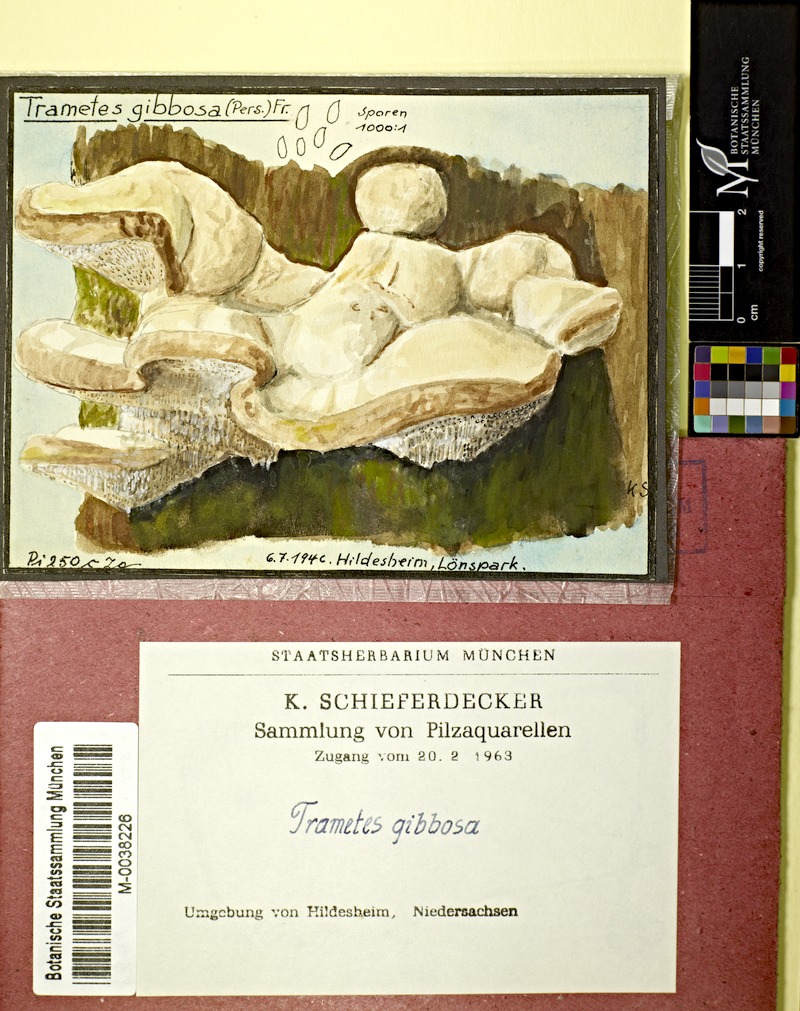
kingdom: Fungi
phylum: Basidiomycota
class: Agaricomycetes
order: Polyporales
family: Polyporaceae
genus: Trametes
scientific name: Trametes gibbosa
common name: Lumpy bracket
